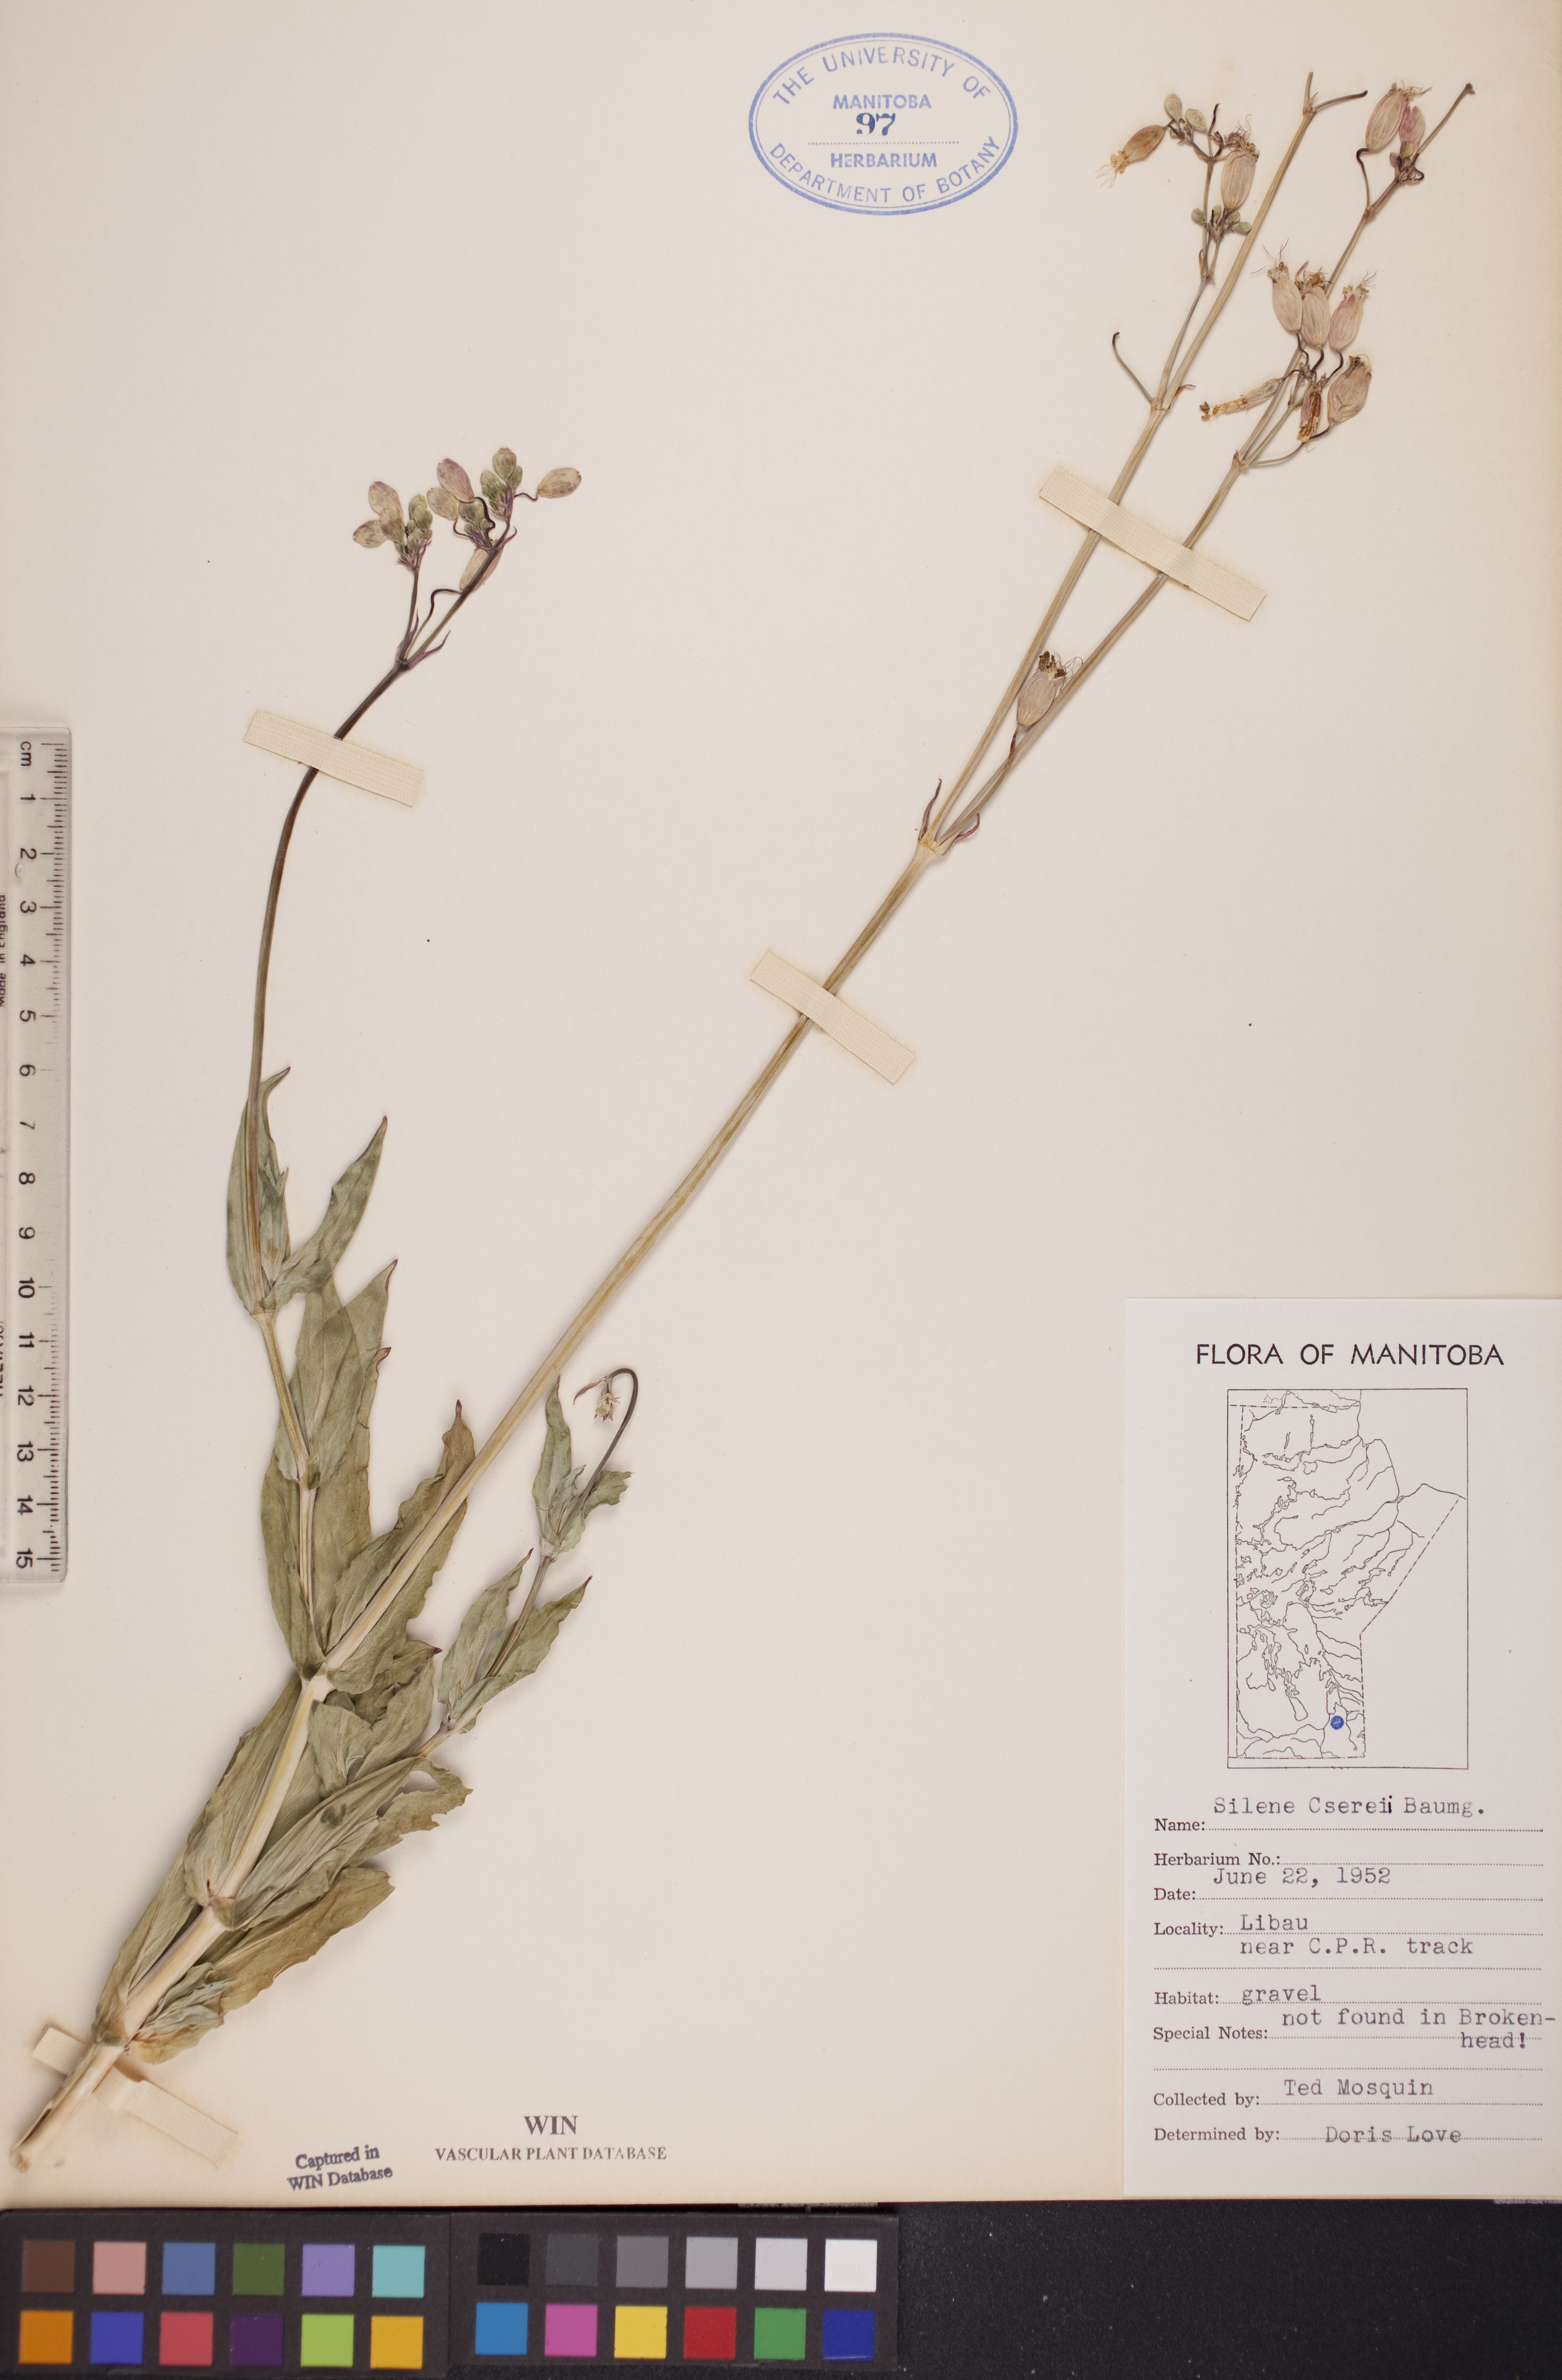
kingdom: Plantae
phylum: Tracheophyta
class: Magnoliopsida
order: Caryophyllales
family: Caryophyllaceae
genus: Silene
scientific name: Silene csereii
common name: Balkan catchfly
